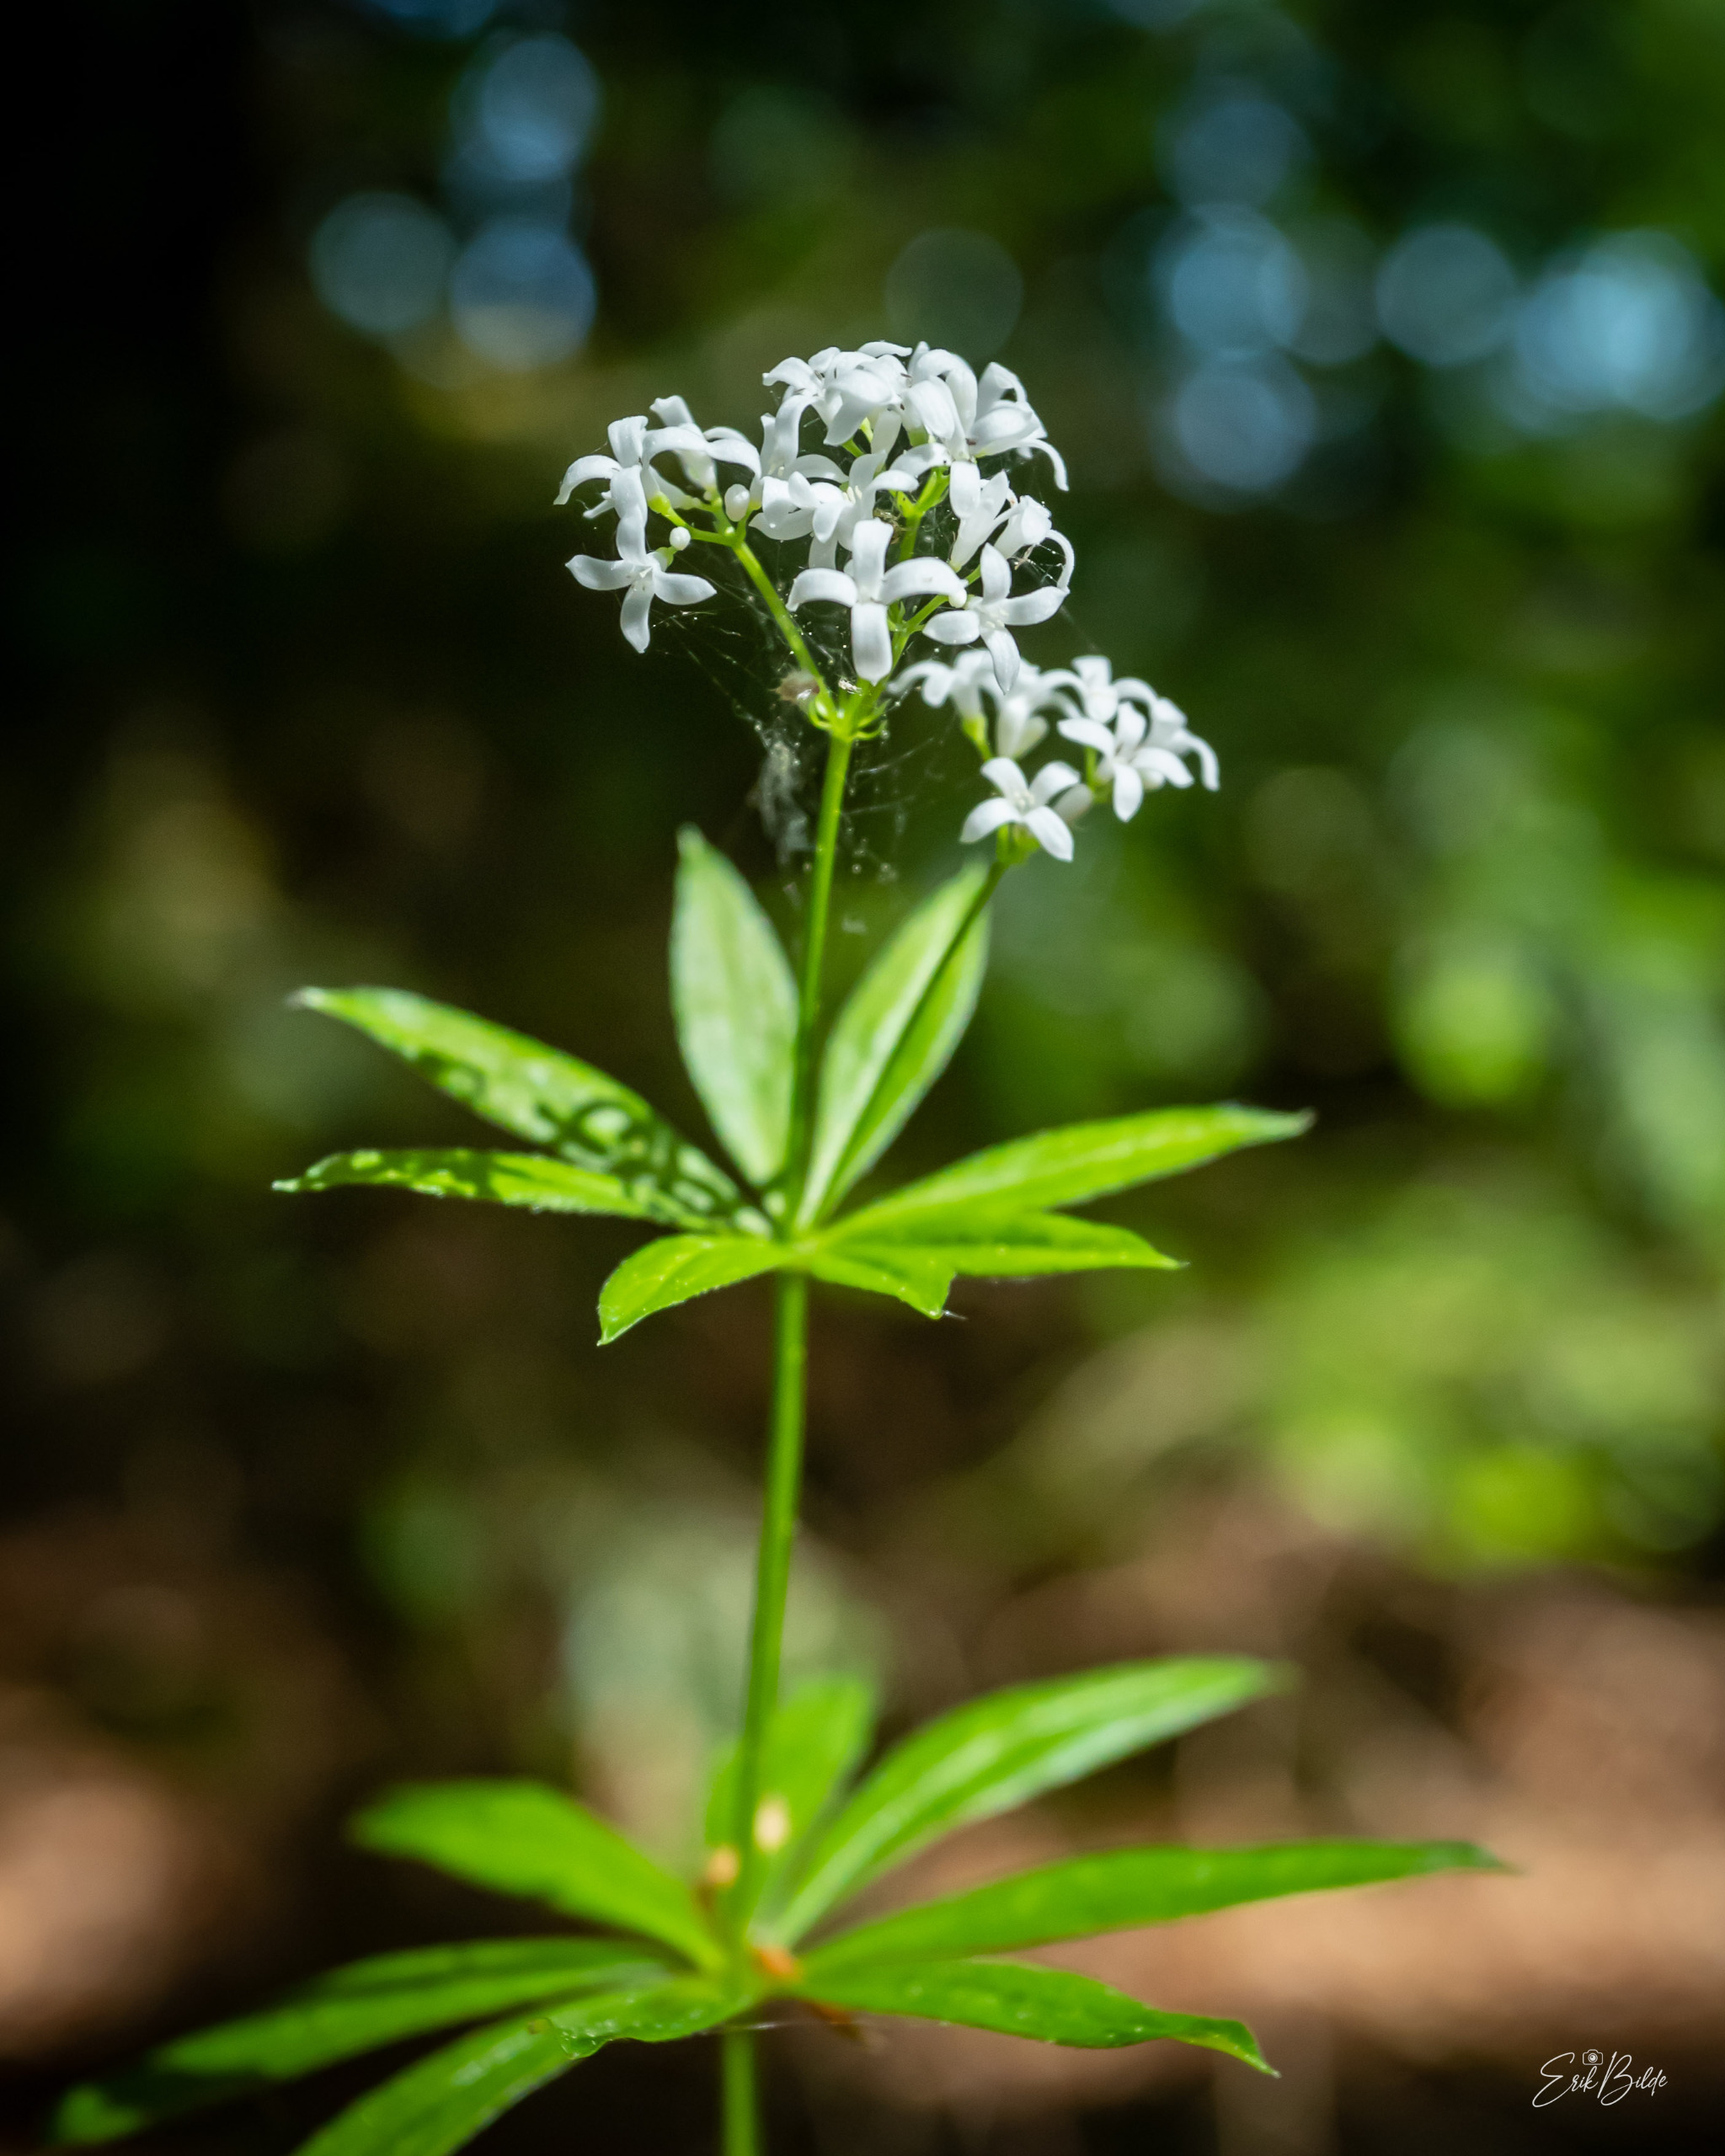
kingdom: Plantae
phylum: Tracheophyta
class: Magnoliopsida
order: Gentianales
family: Rubiaceae
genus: Galium
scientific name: Galium odoratum
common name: Skovmærke
